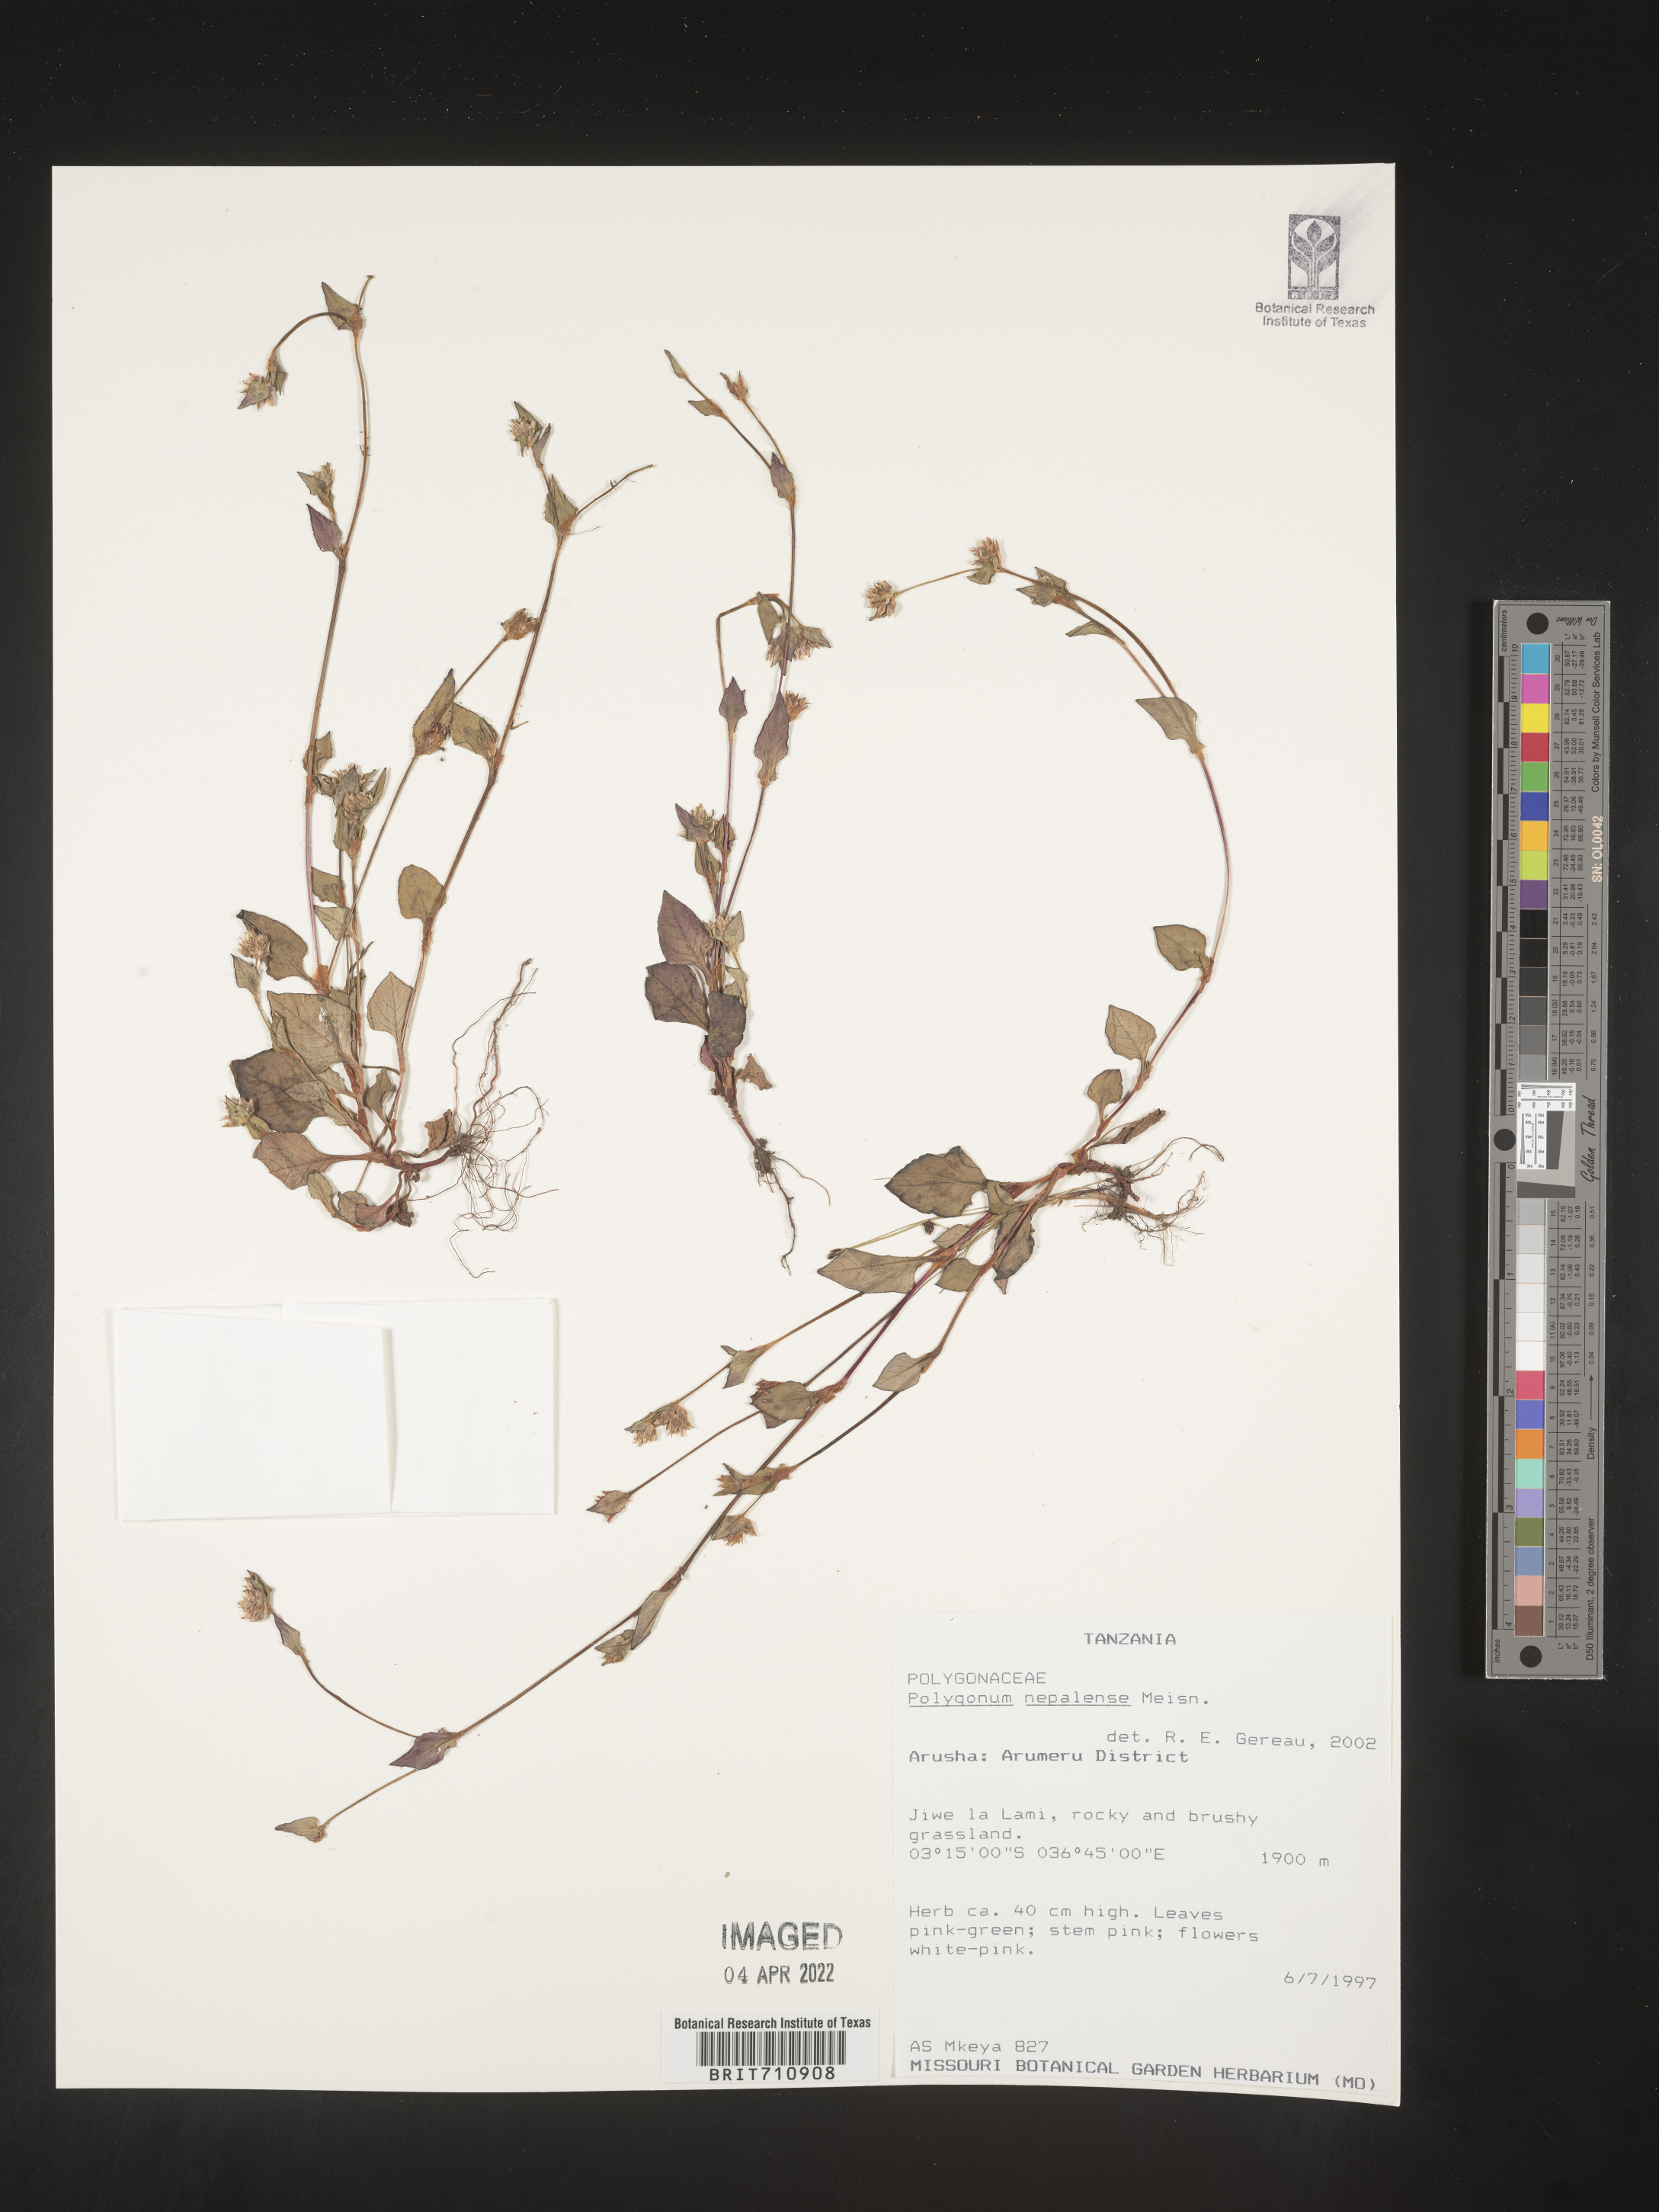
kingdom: Plantae
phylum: Tracheophyta
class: Magnoliopsida
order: Caryophyllales
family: Polygonaceae
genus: Polygonum
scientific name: Polygonum
